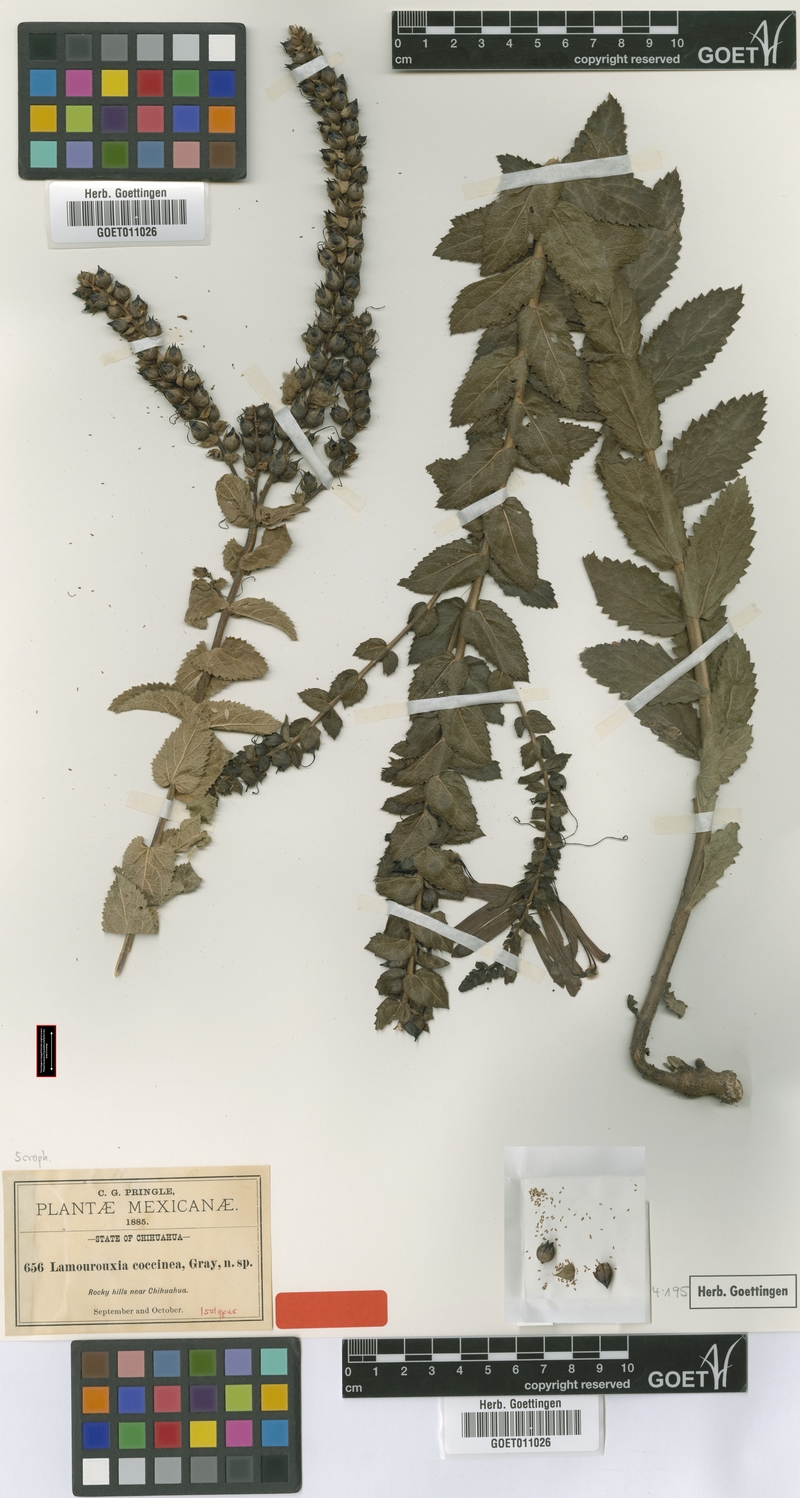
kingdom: Plantae
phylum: Tracheophyta
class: Magnoliopsida
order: Lamiales
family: Orobanchaceae
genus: Lamourouxia
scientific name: Lamourouxia viscosa
